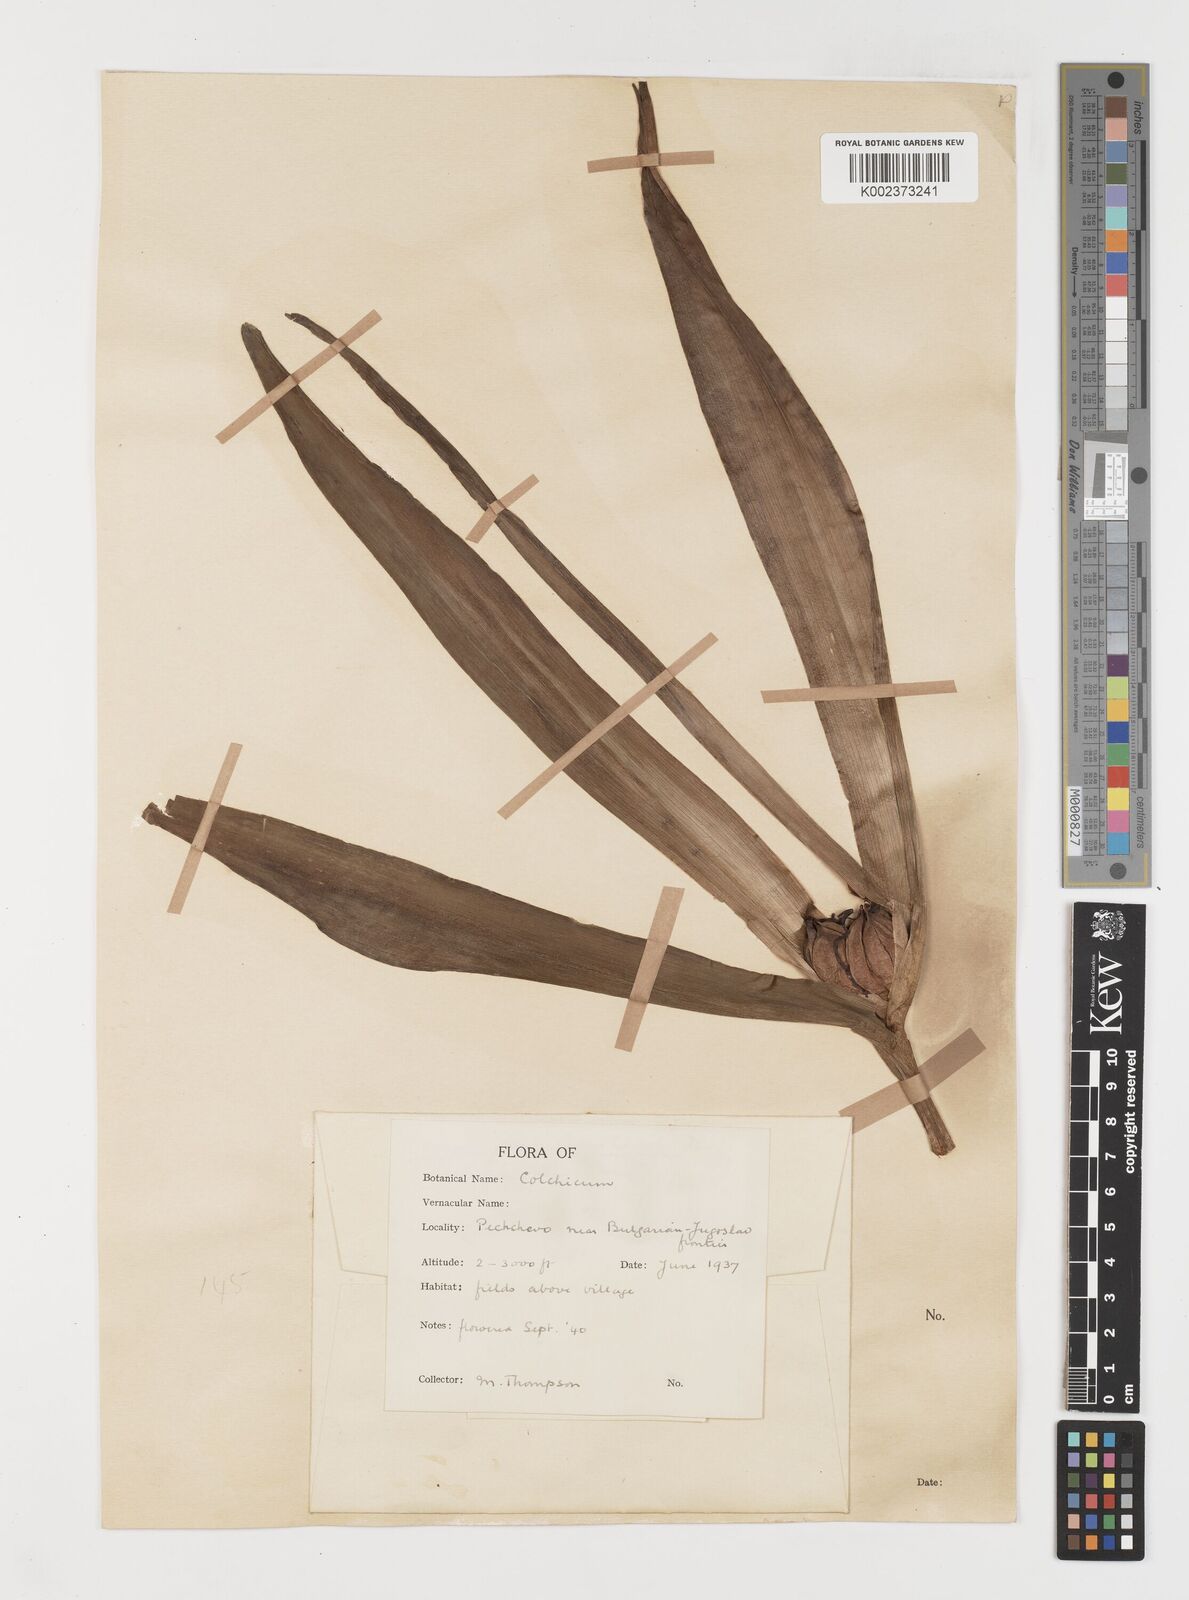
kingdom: Plantae
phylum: Tracheophyta
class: Liliopsida
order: Liliales
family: Colchicaceae
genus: Colchicum
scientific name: Colchicum autumnale
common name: Autumn crocus
